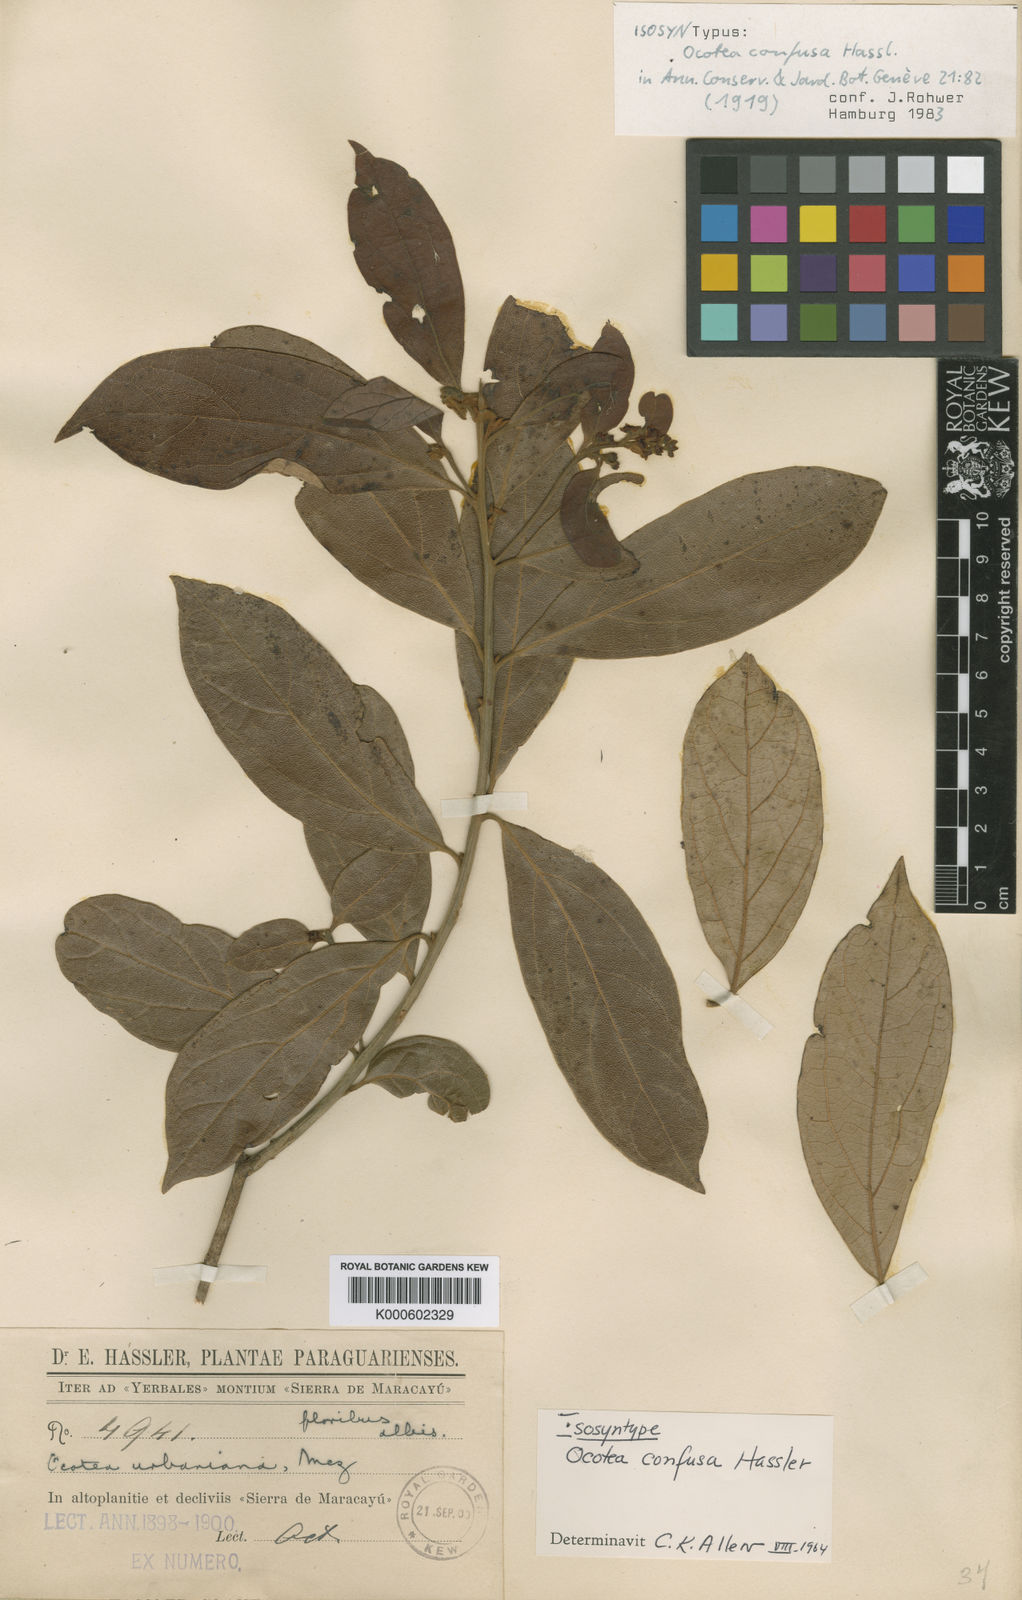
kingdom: Plantae
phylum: Tracheophyta
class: Magnoliopsida
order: Laurales
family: Lauraceae
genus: Ocotea
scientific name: Ocotea densiflora
